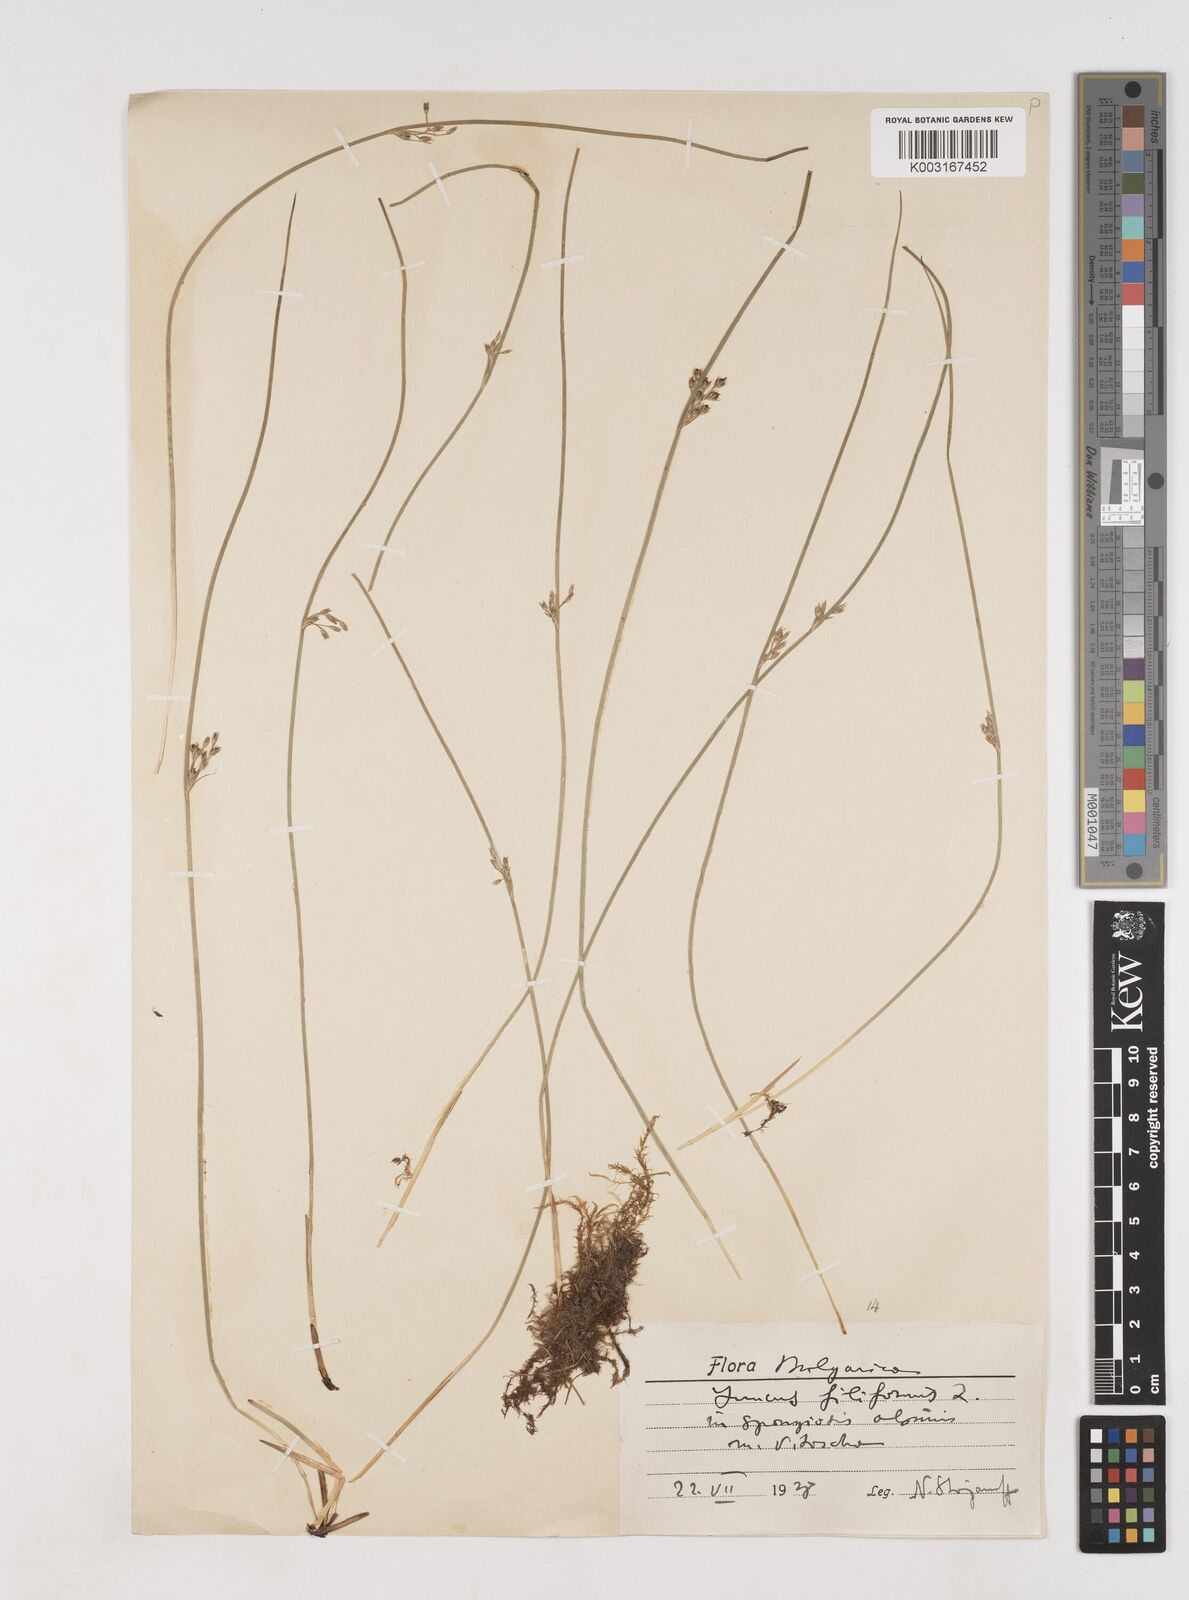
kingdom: Plantae
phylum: Tracheophyta
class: Liliopsida
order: Poales
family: Juncaceae
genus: Juncus
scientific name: Juncus filiformis
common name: Thread rush
